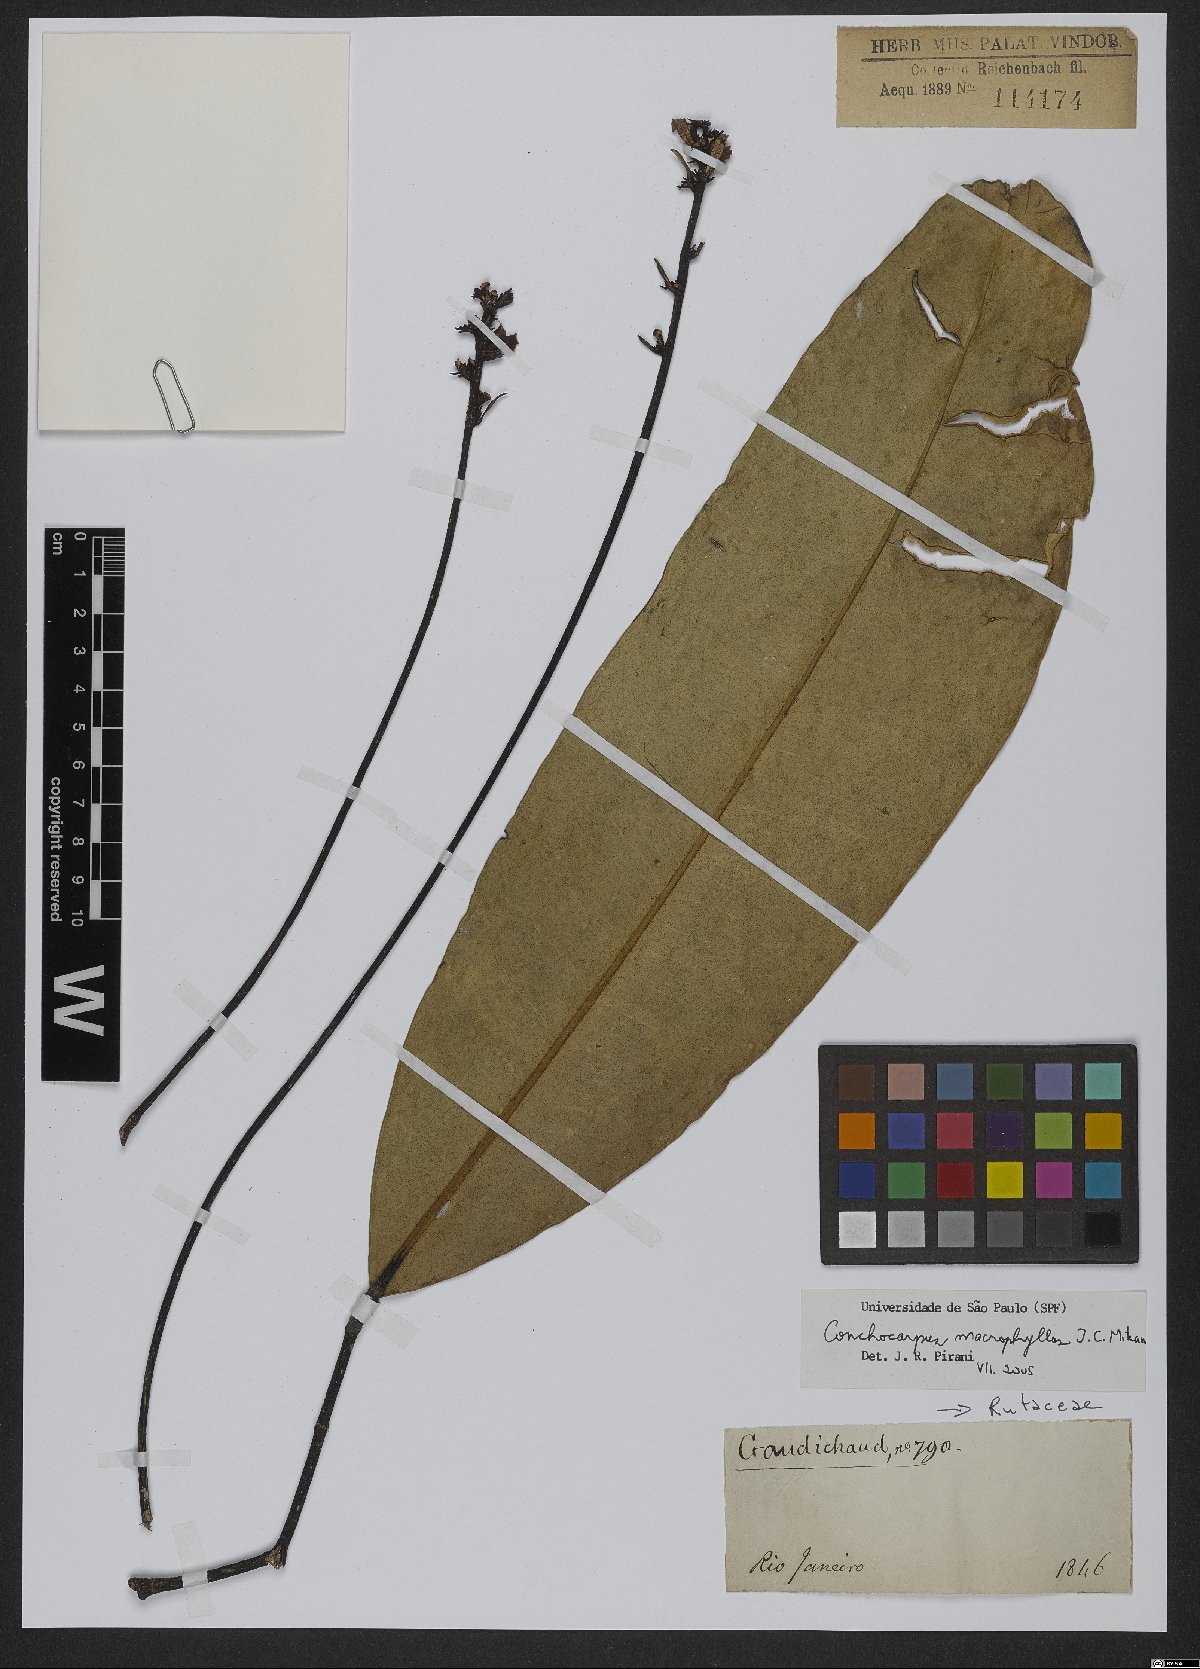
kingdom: Plantae
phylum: Tracheophyta
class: Magnoliopsida
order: Sapindales
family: Rutaceae
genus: Conchocarpus
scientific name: Conchocarpus macrophyllus
